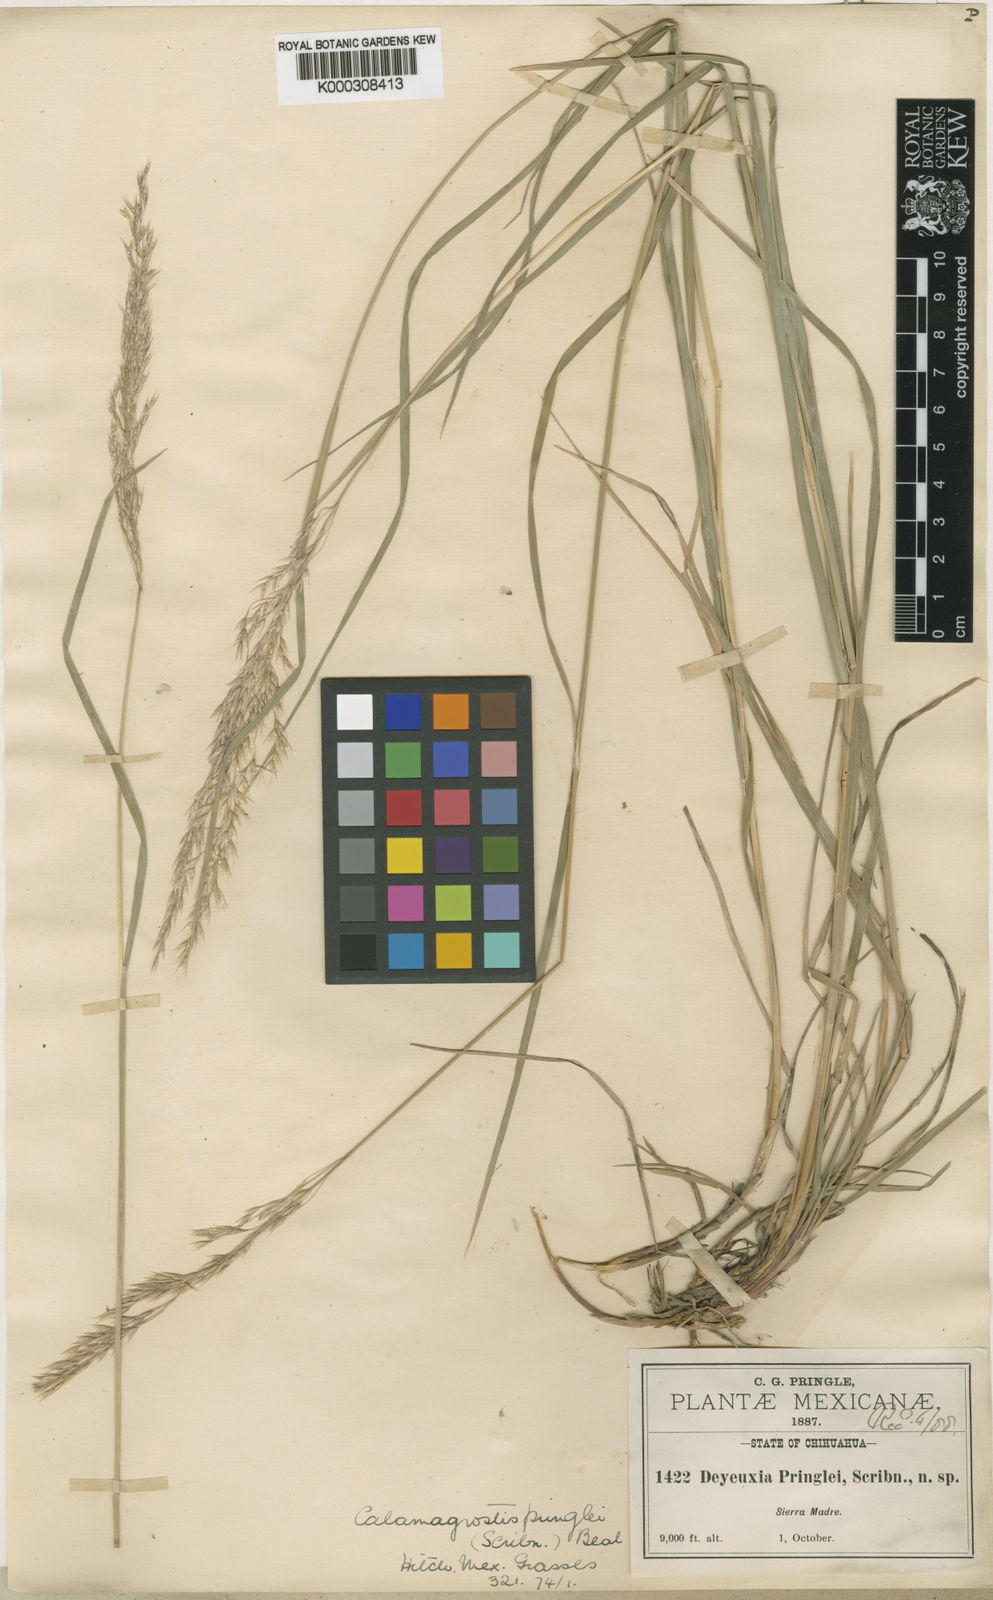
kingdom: Plantae
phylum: Tracheophyta
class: Liliopsida
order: Poales
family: Poaceae
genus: Peyritschia
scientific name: Peyritschia bealii
